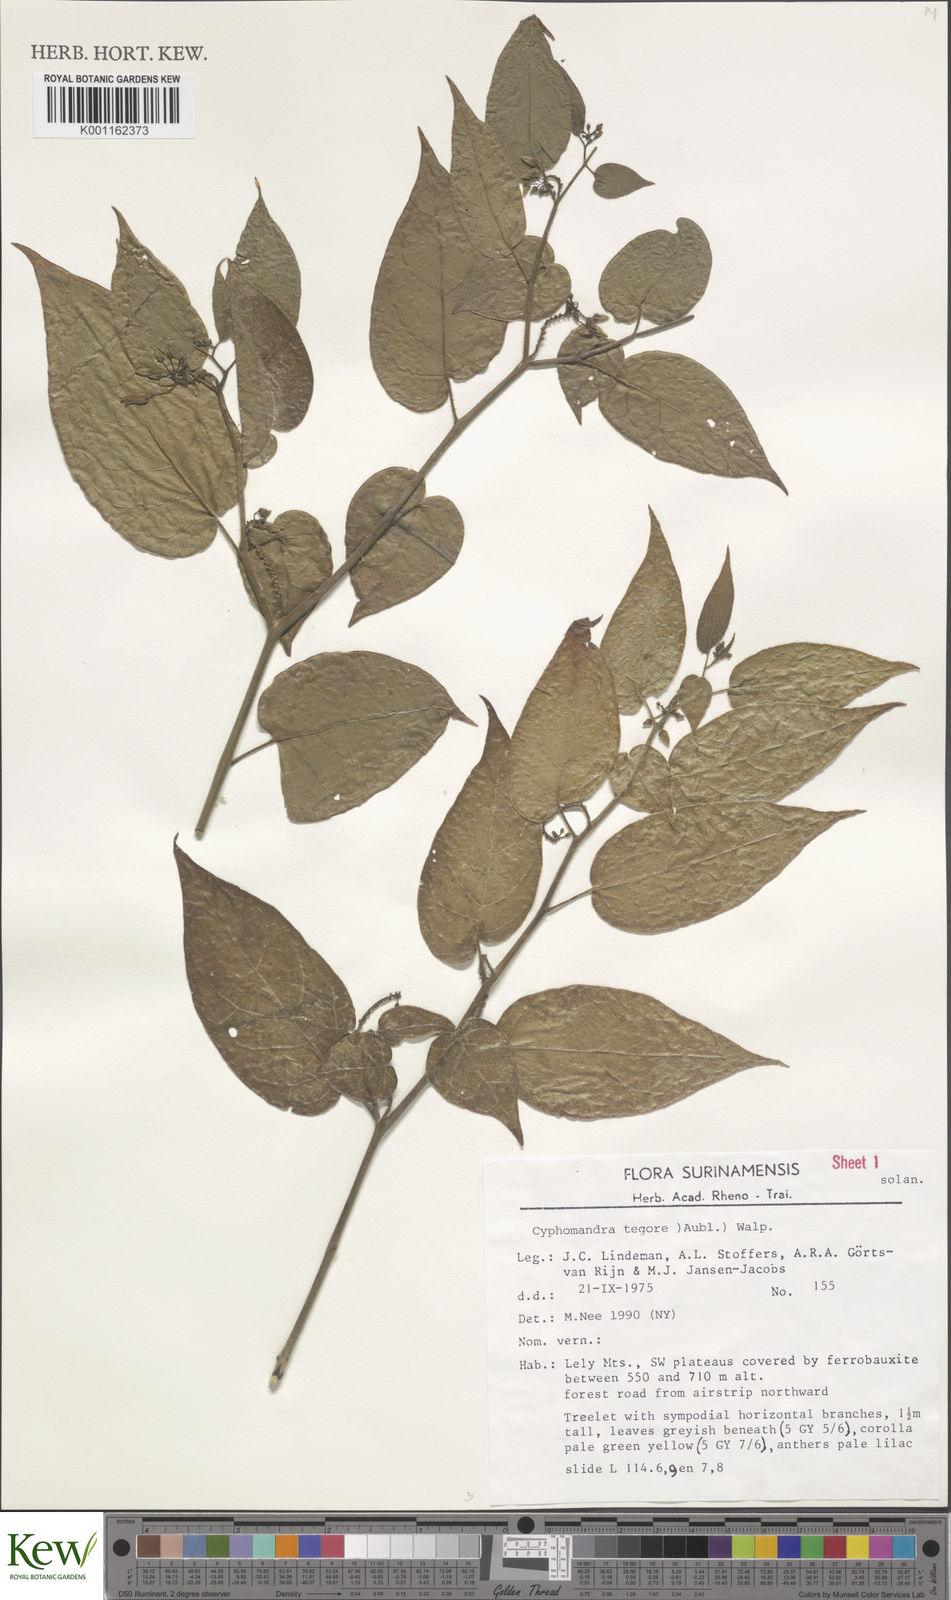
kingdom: Plantae
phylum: Tracheophyta
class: Magnoliopsida
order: Solanales
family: Solanaceae
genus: Solanum
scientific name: Solanum tegore
